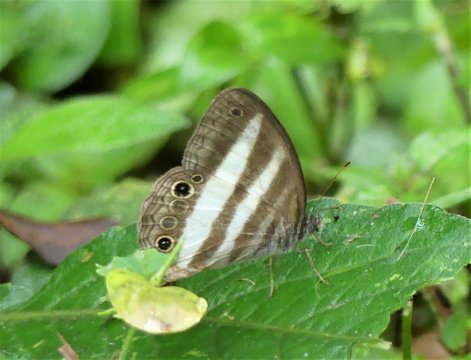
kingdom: Animalia
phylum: Arthropoda
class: Insecta
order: Lepidoptera
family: Nymphalidae
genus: Pareuptychia
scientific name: Pareuptychia hesione
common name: White Satyr
